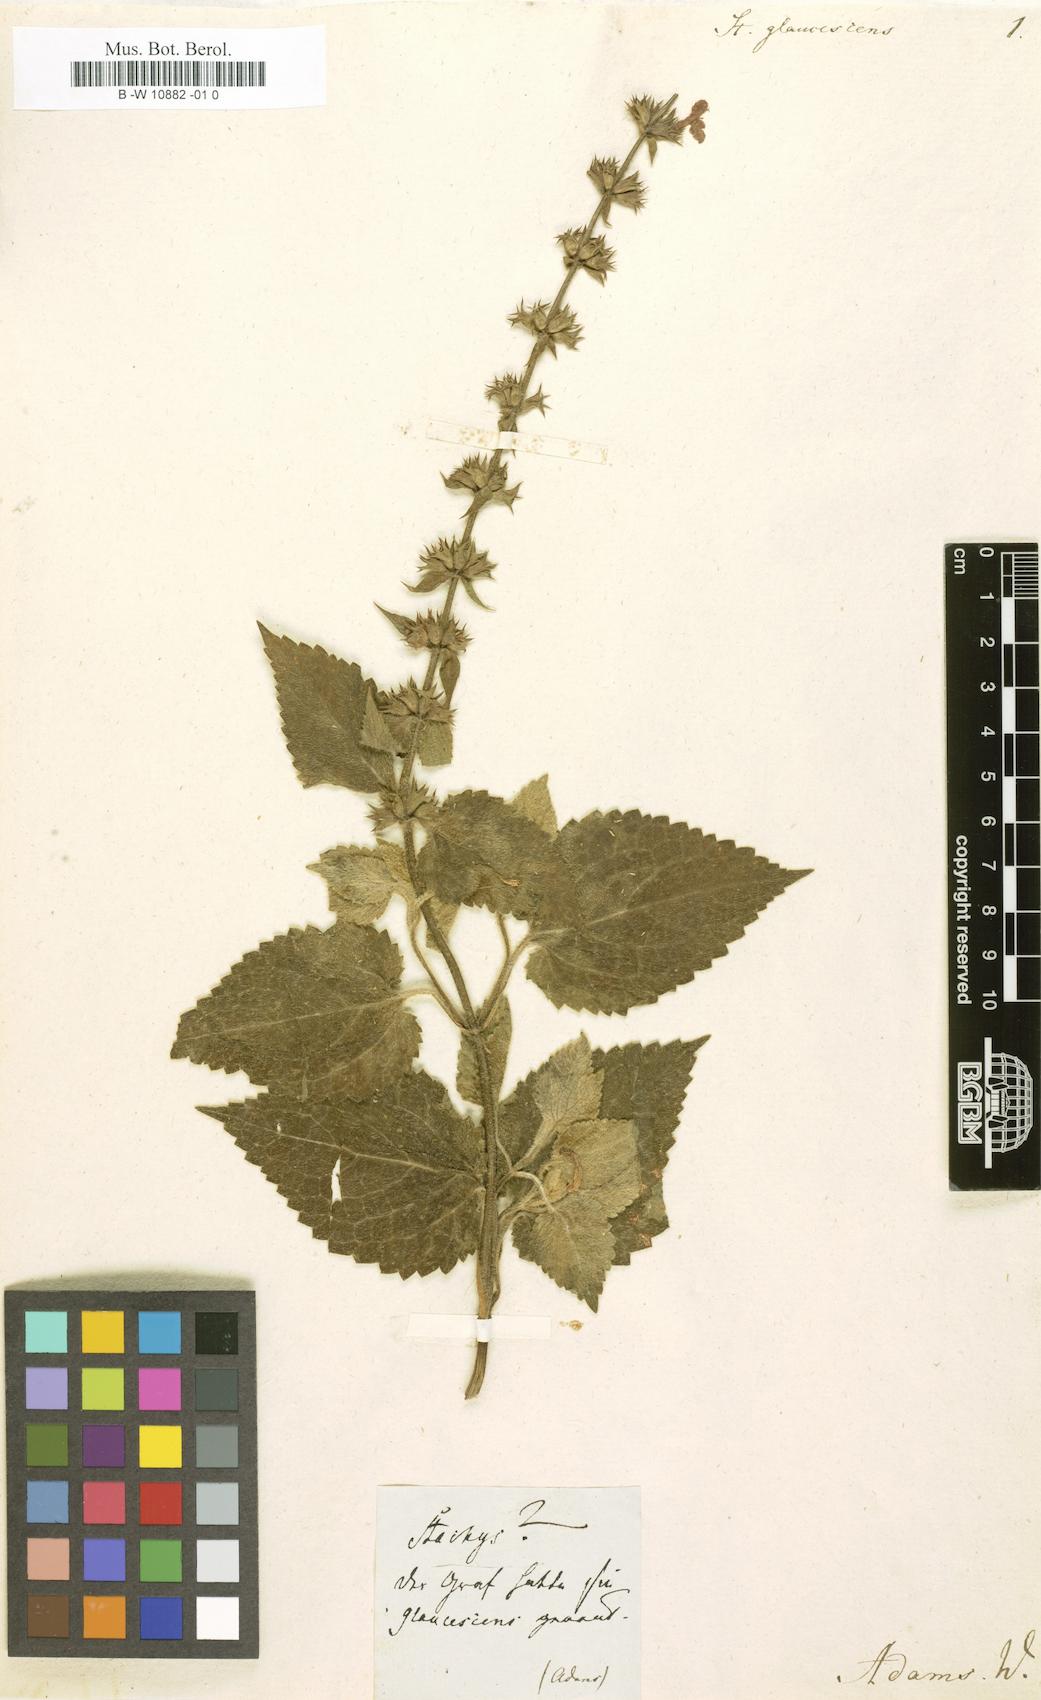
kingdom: Plantae
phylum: Tracheophyta
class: Magnoliopsida
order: Lamiales
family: Lamiaceae
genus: Stachys
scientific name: Stachys sylvatica
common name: Hedge woundwort
